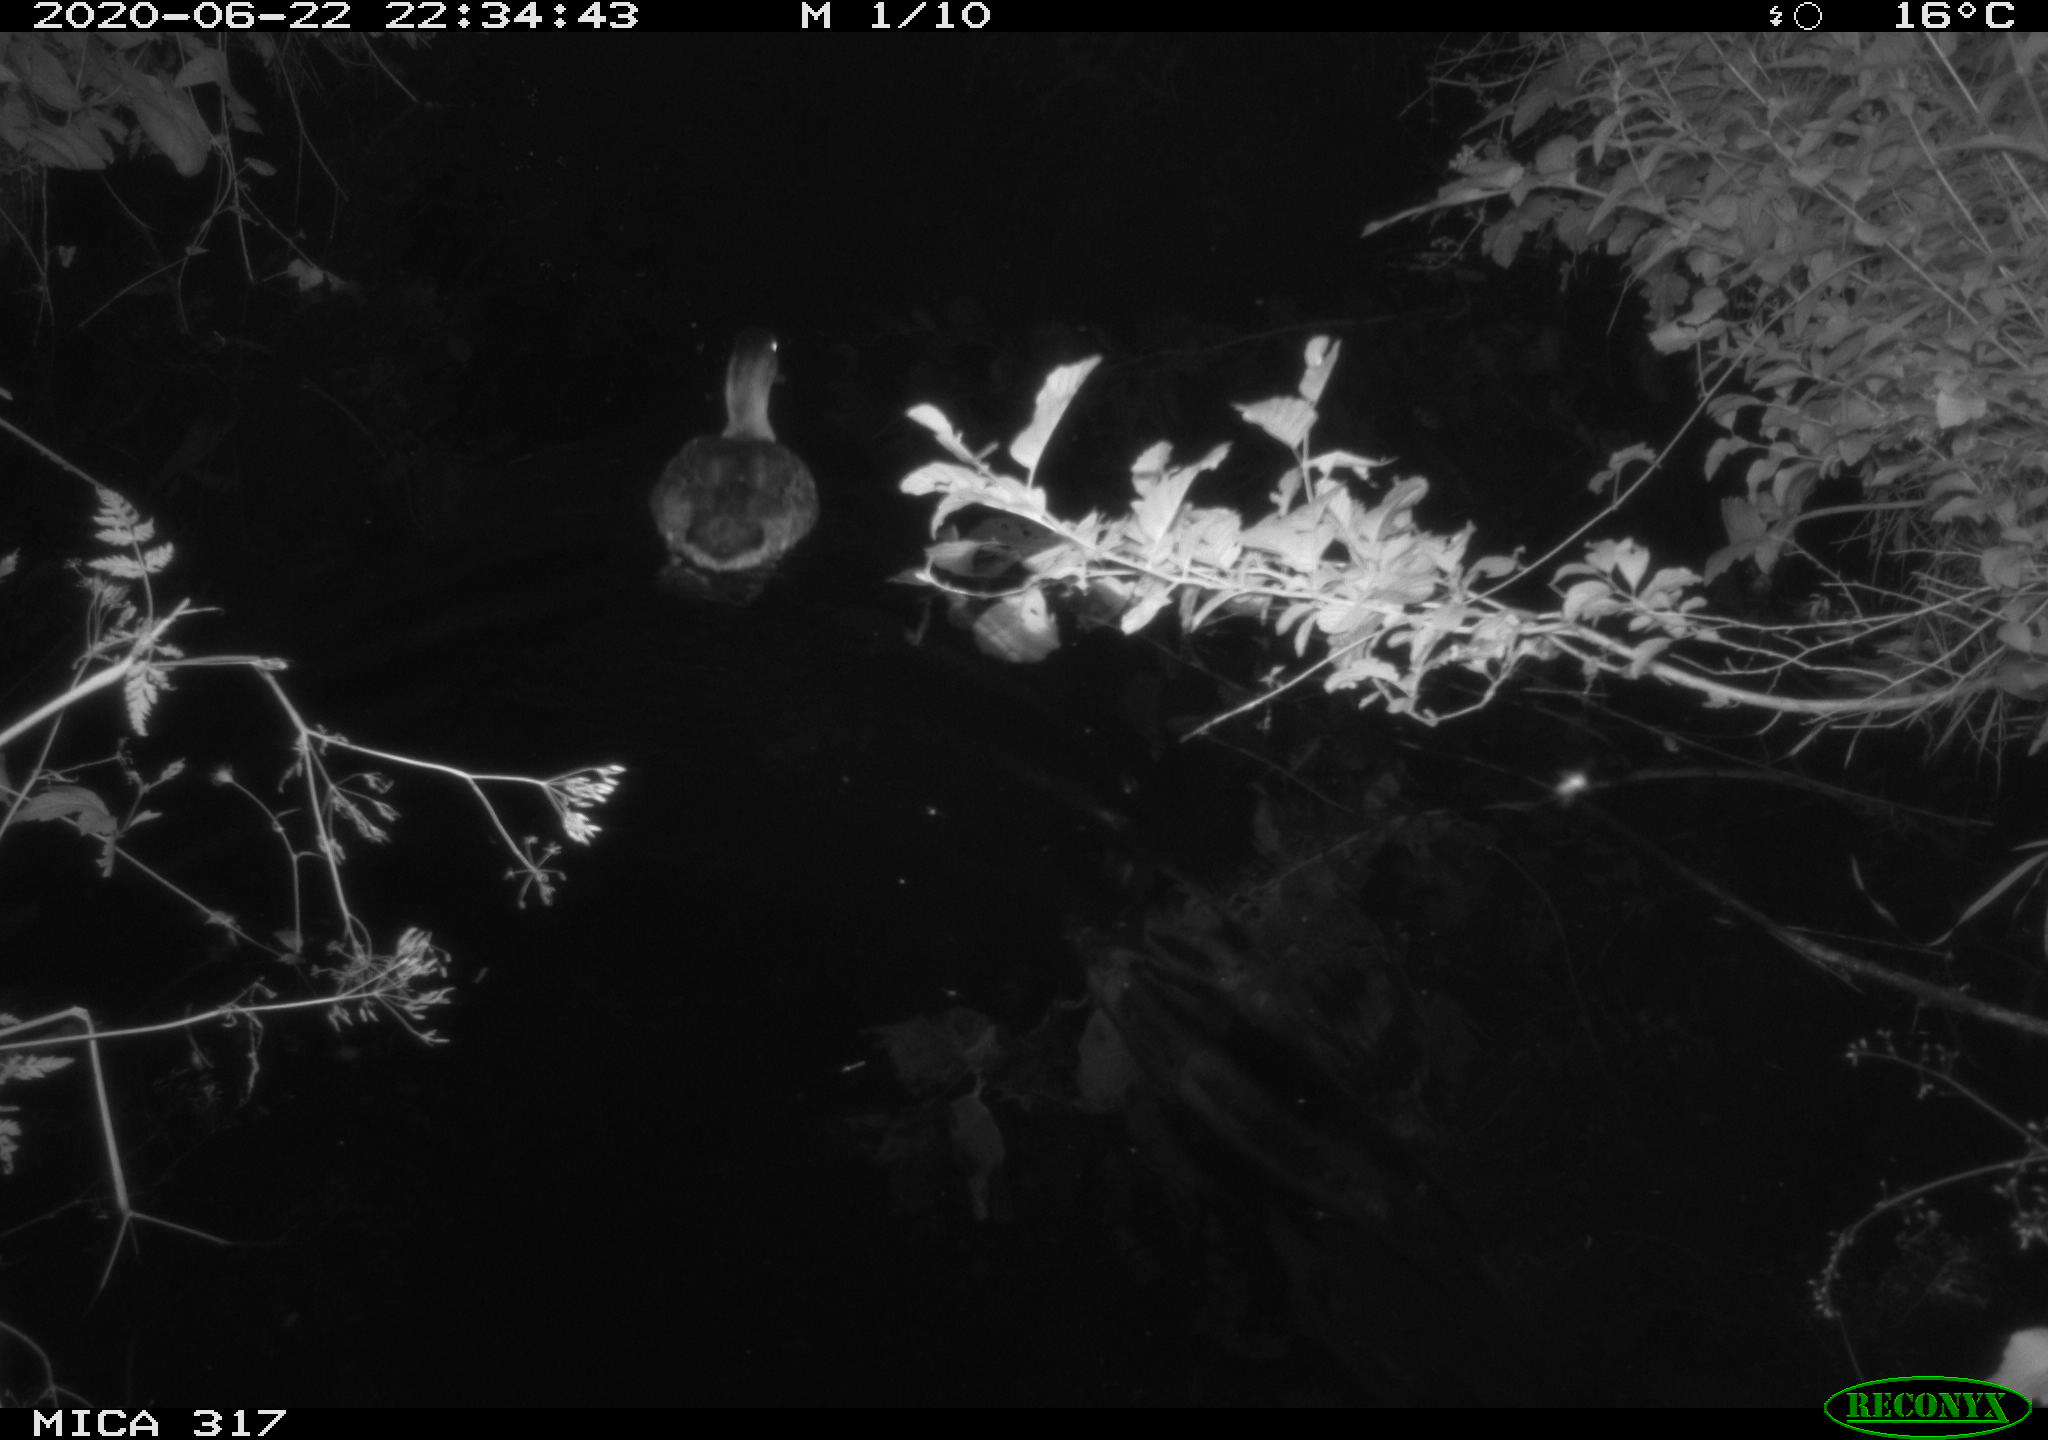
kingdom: Animalia
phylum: Chordata
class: Aves
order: Anseriformes
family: Anatidae
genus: Anas
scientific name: Anas platyrhynchos
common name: Mallard
